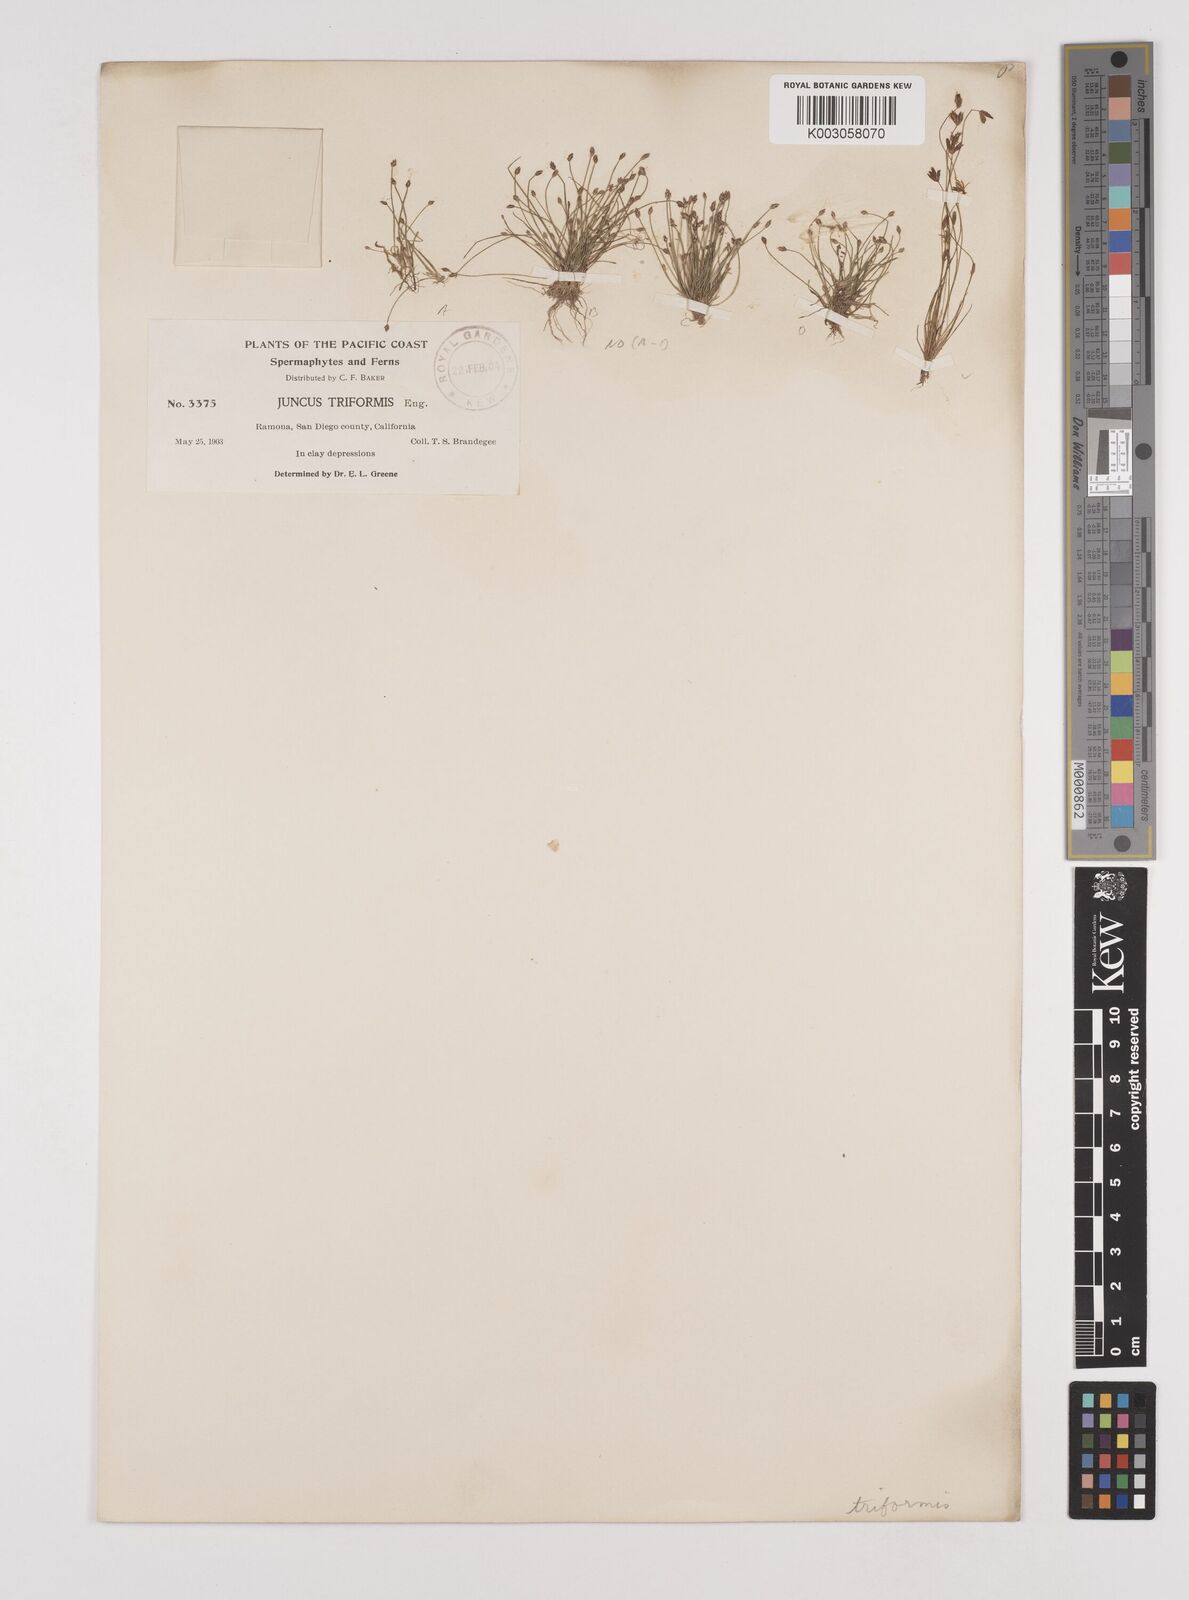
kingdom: Plantae
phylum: Tracheophyta
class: Liliopsida
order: Poales
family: Juncaceae
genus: Juncus
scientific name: Juncus triformis
